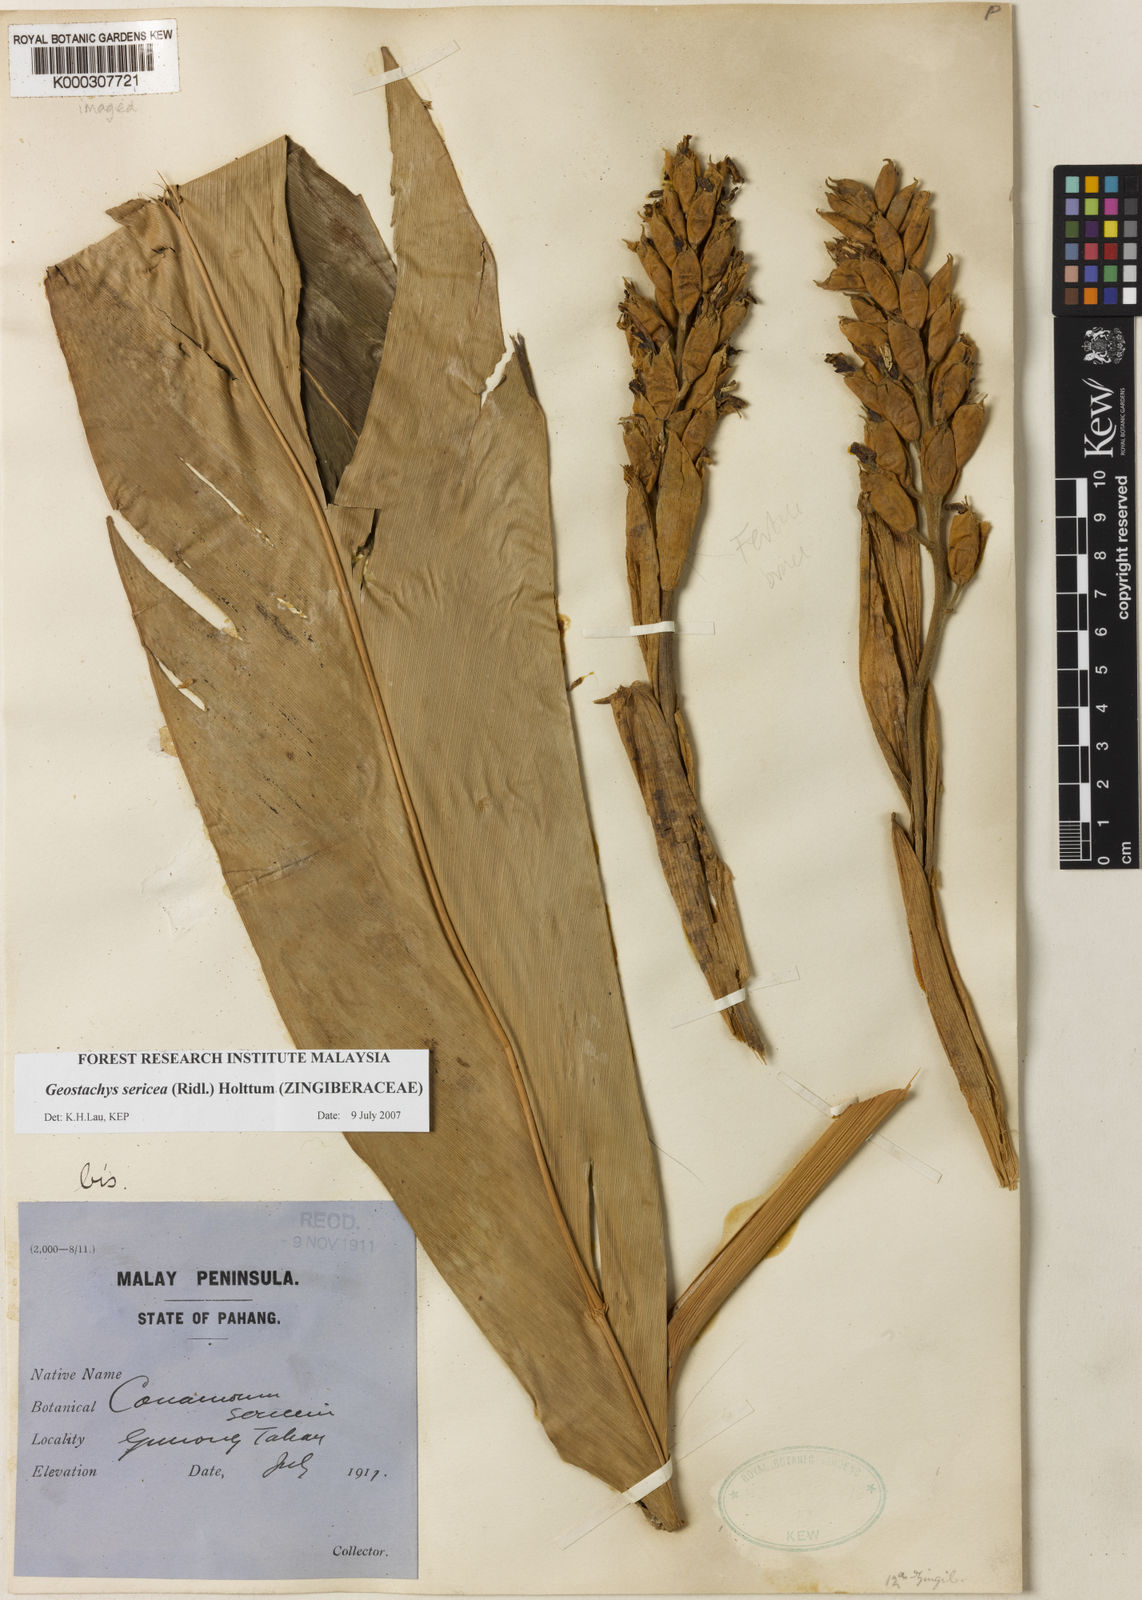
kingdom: Plantae
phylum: Tracheophyta
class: Liliopsida
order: Zingiberales
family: Zingiberaceae
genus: Geostachys
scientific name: Geostachys sericea
